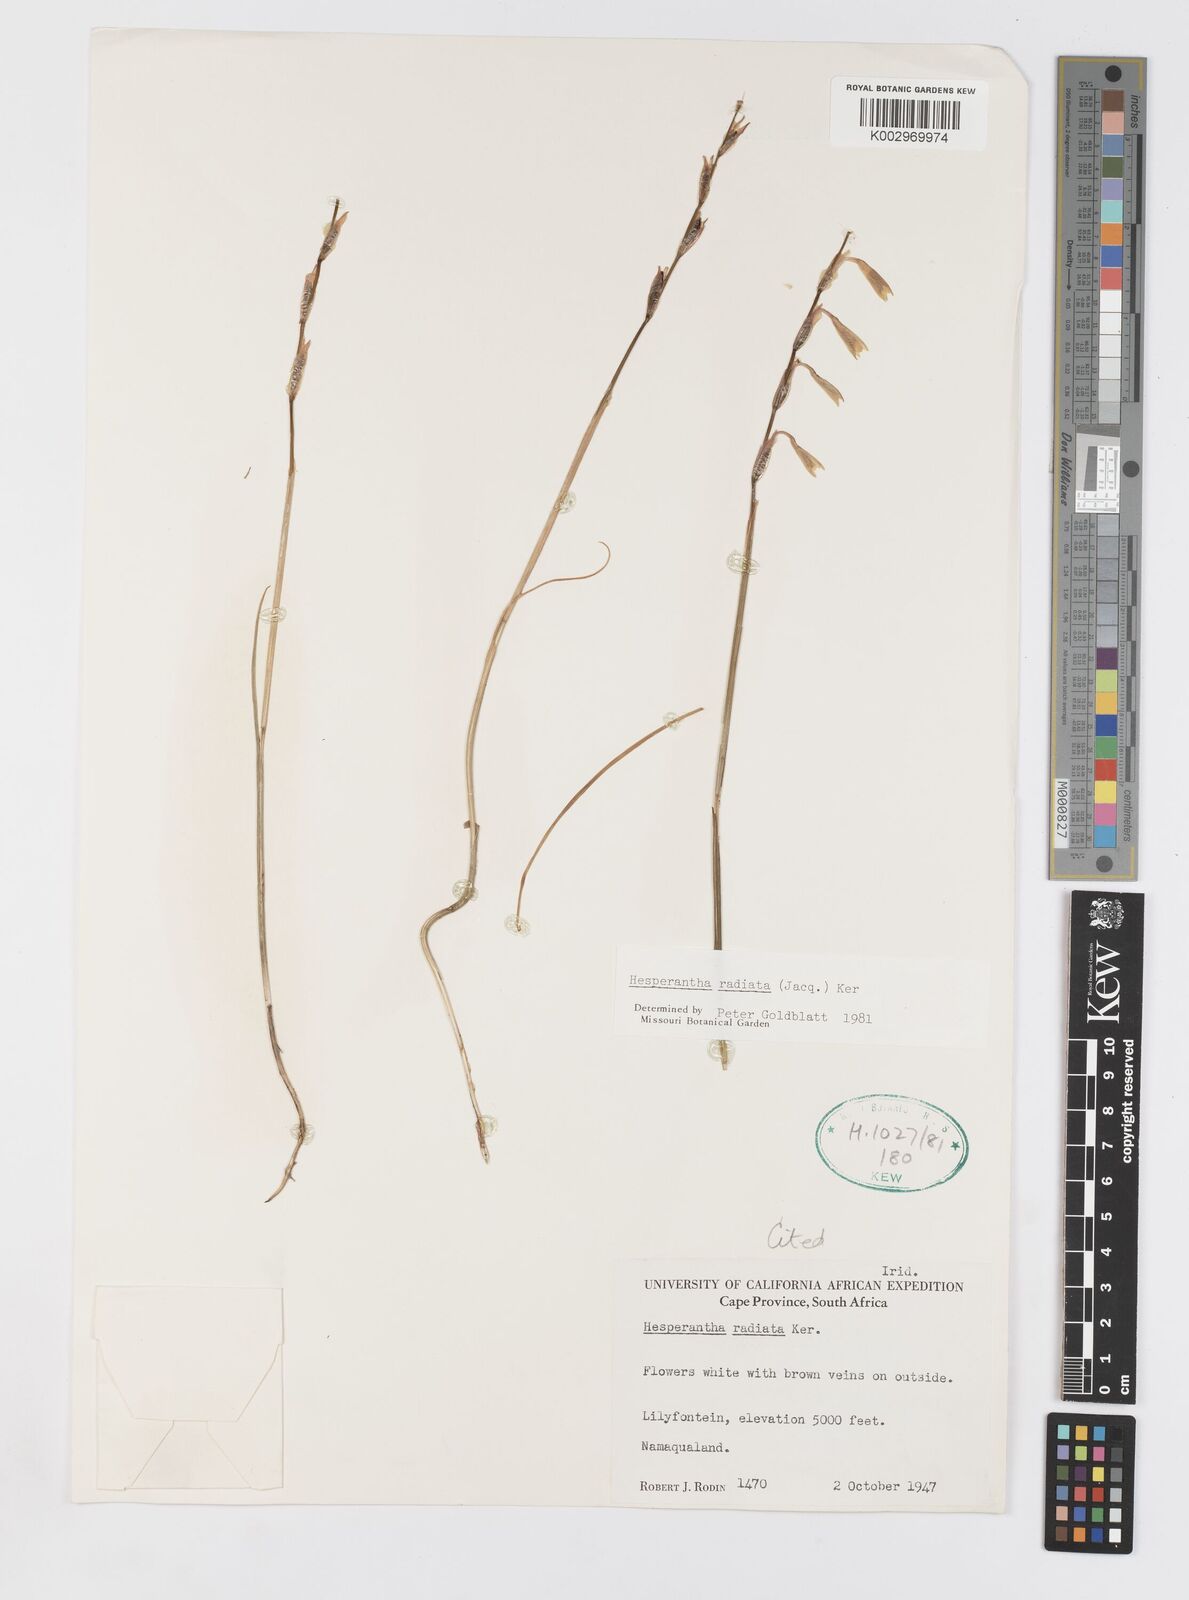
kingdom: Plantae
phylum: Tracheophyta
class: Liliopsida
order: Asparagales
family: Iridaceae
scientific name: Iridaceae
